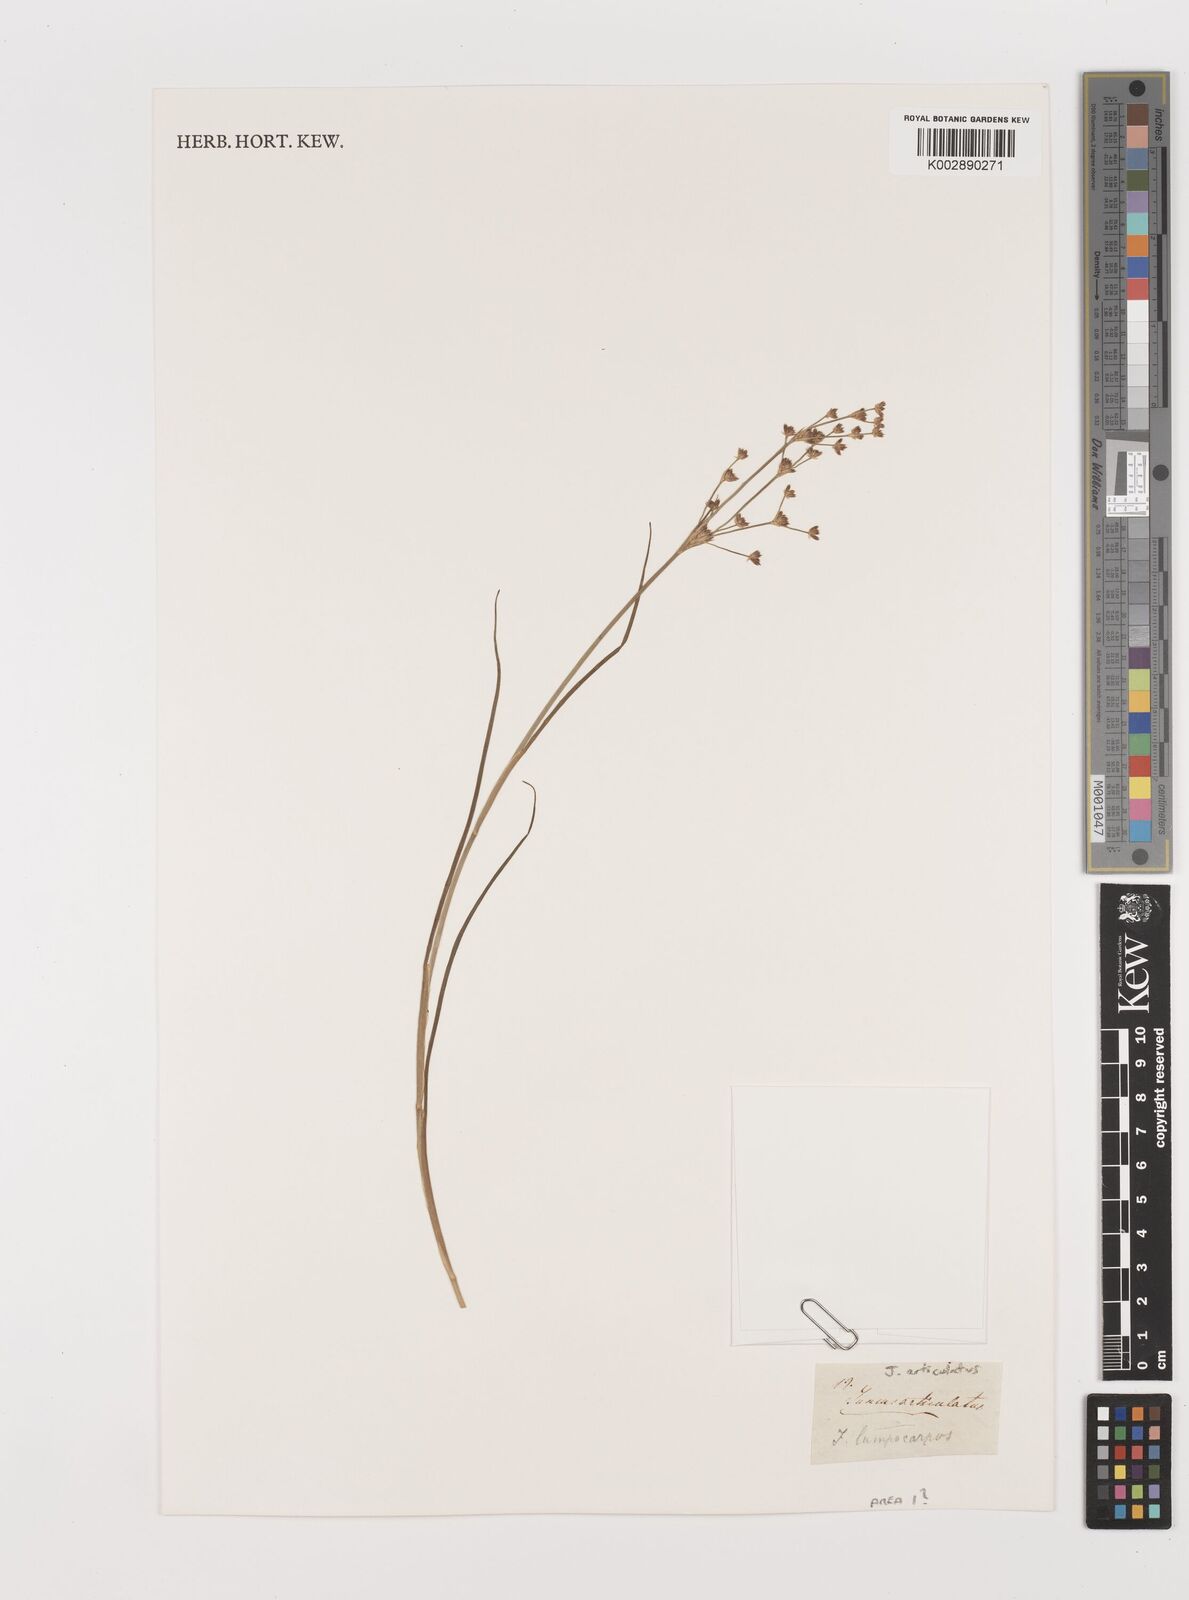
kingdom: Plantae
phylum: Tracheophyta
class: Liliopsida
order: Poales
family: Juncaceae
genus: Juncus
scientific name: Juncus articulatus
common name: Jointed rush
